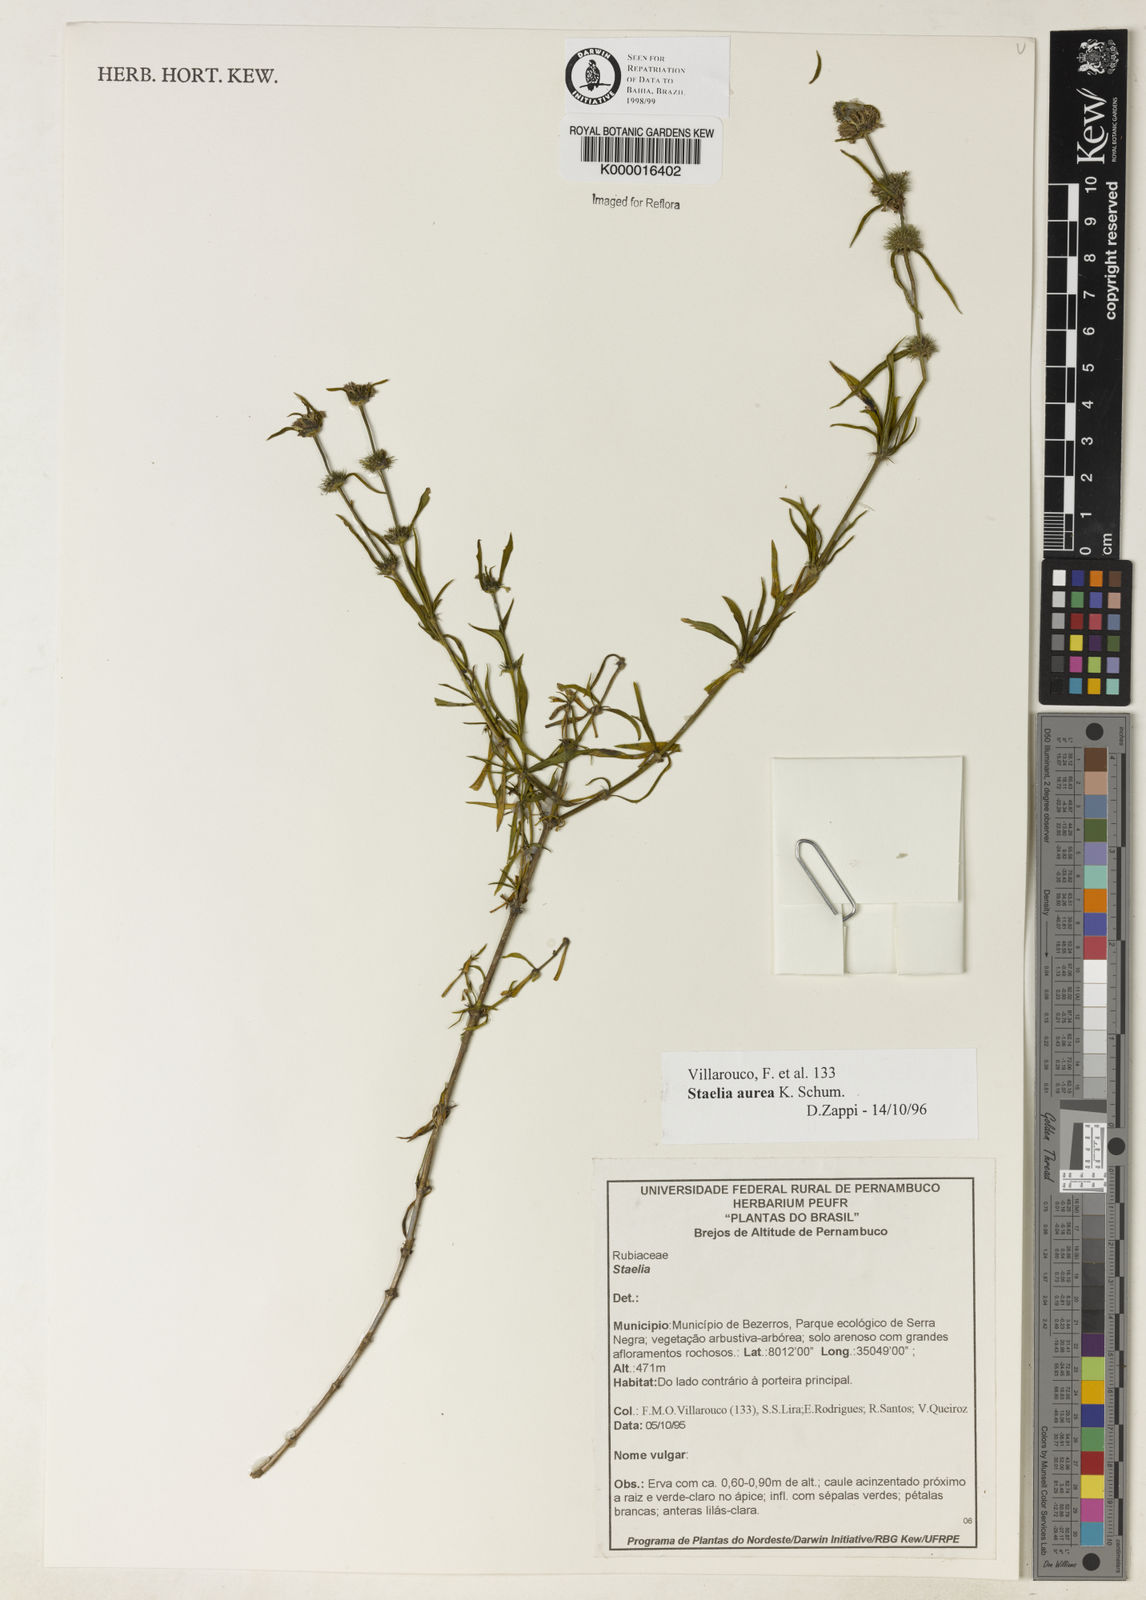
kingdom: Plantae
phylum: Tracheophyta
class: Magnoliopsida
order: Gentianales
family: Rubiaceae
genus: Staelia
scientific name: Staelia aurea
